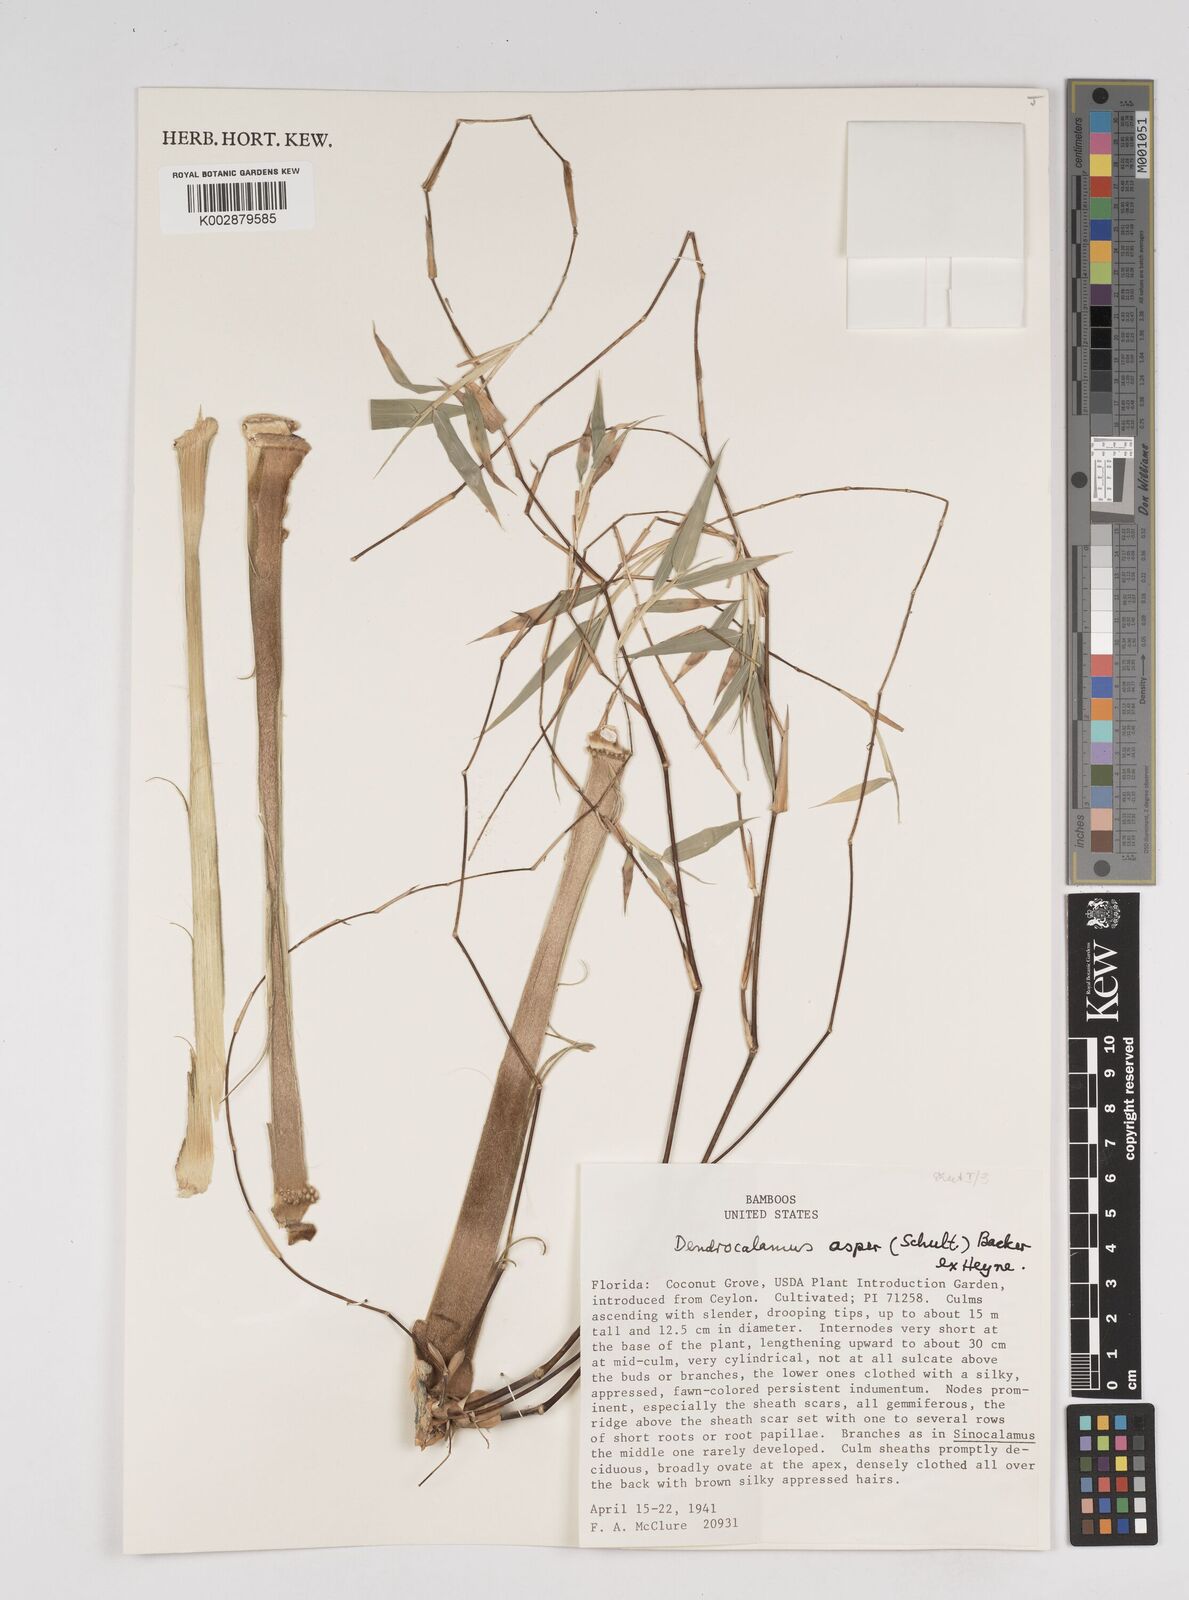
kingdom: Plantae
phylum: Tracheophyta
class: Liliopsida
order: Poales
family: Poaceae
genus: Dendrocalamus
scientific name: Dendrocalamus asper
